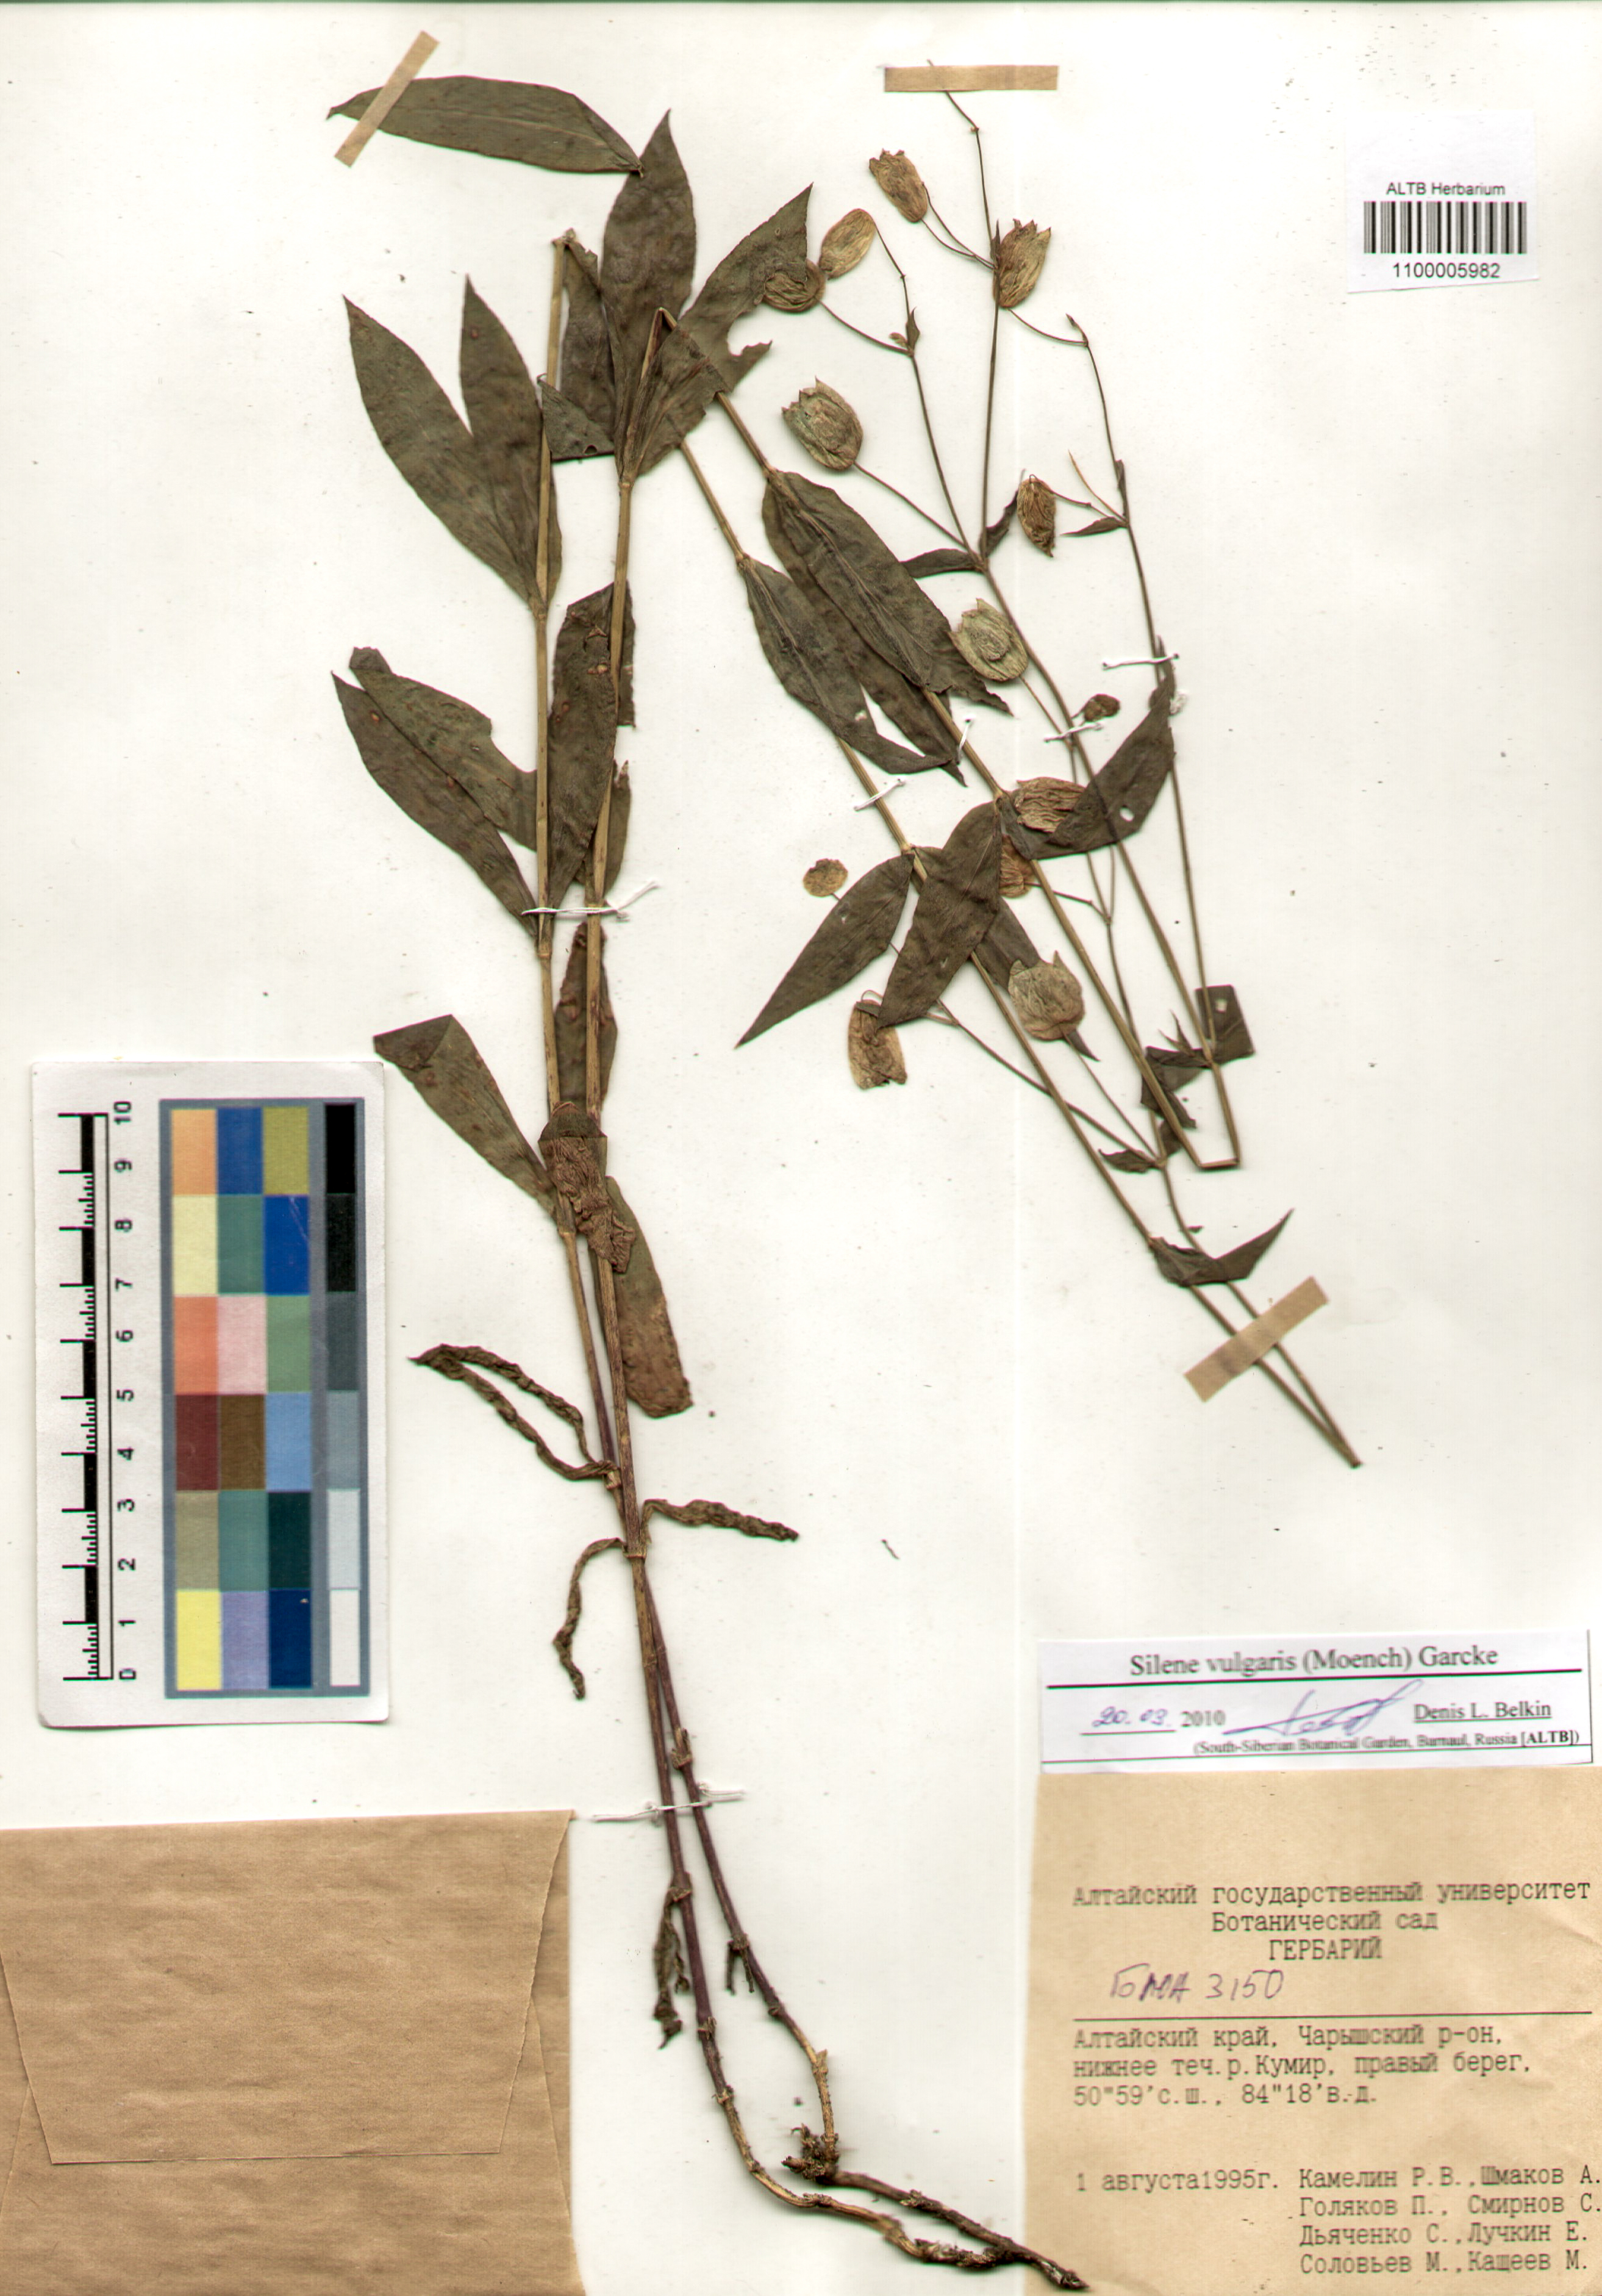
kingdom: Plantae
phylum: Tracheophyta
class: Magnoliopsida
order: Caryophyllales
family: Caryophyllaceae
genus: Silene
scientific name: Silene vulgaris
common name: Bladder campion
